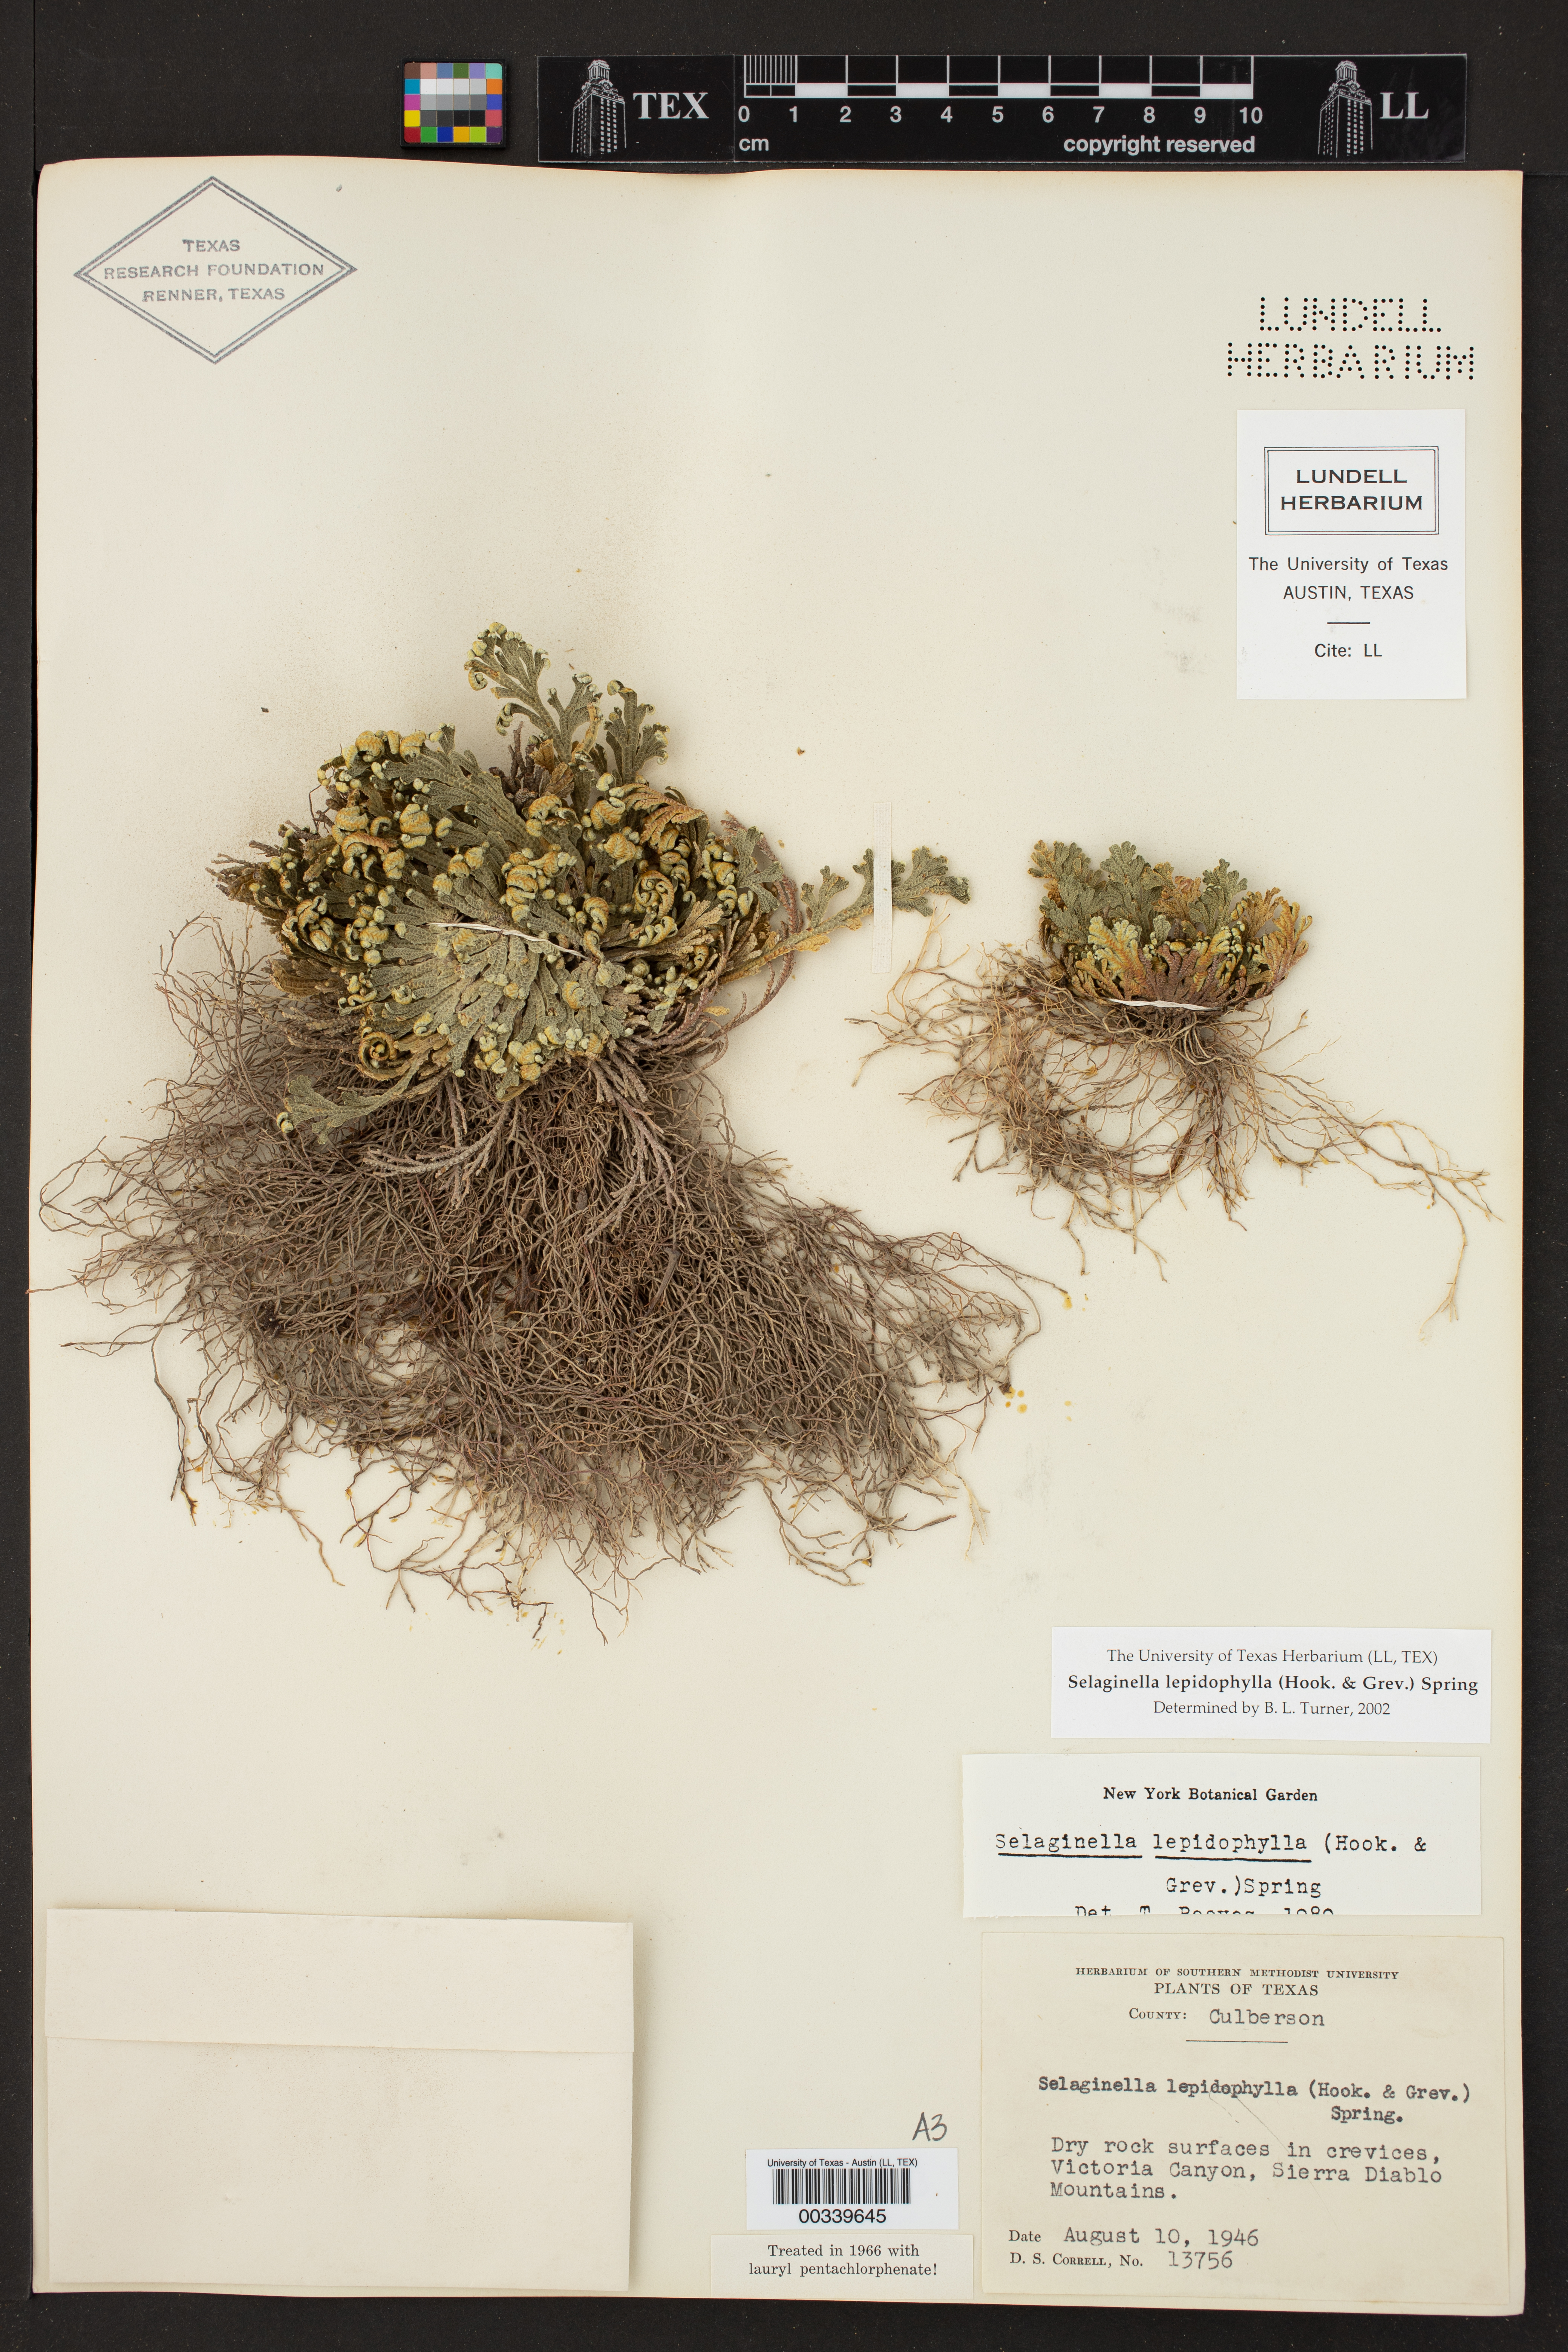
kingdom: Plantae
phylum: Tracheophyta
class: Lycopodiopsida
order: Selaginellales
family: Selaginellaceae
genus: Selaginella
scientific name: Selaginella lepidophylla
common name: Rose-of-jericho
